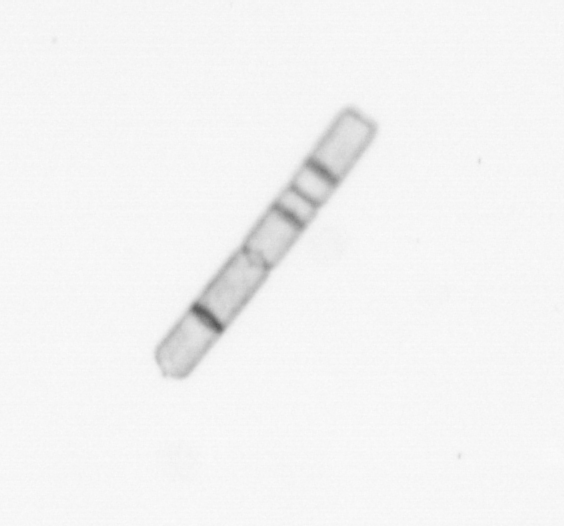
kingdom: Chromista
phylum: Ochrophyta
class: Bacillariophyceae
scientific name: Bacillariophyceae
